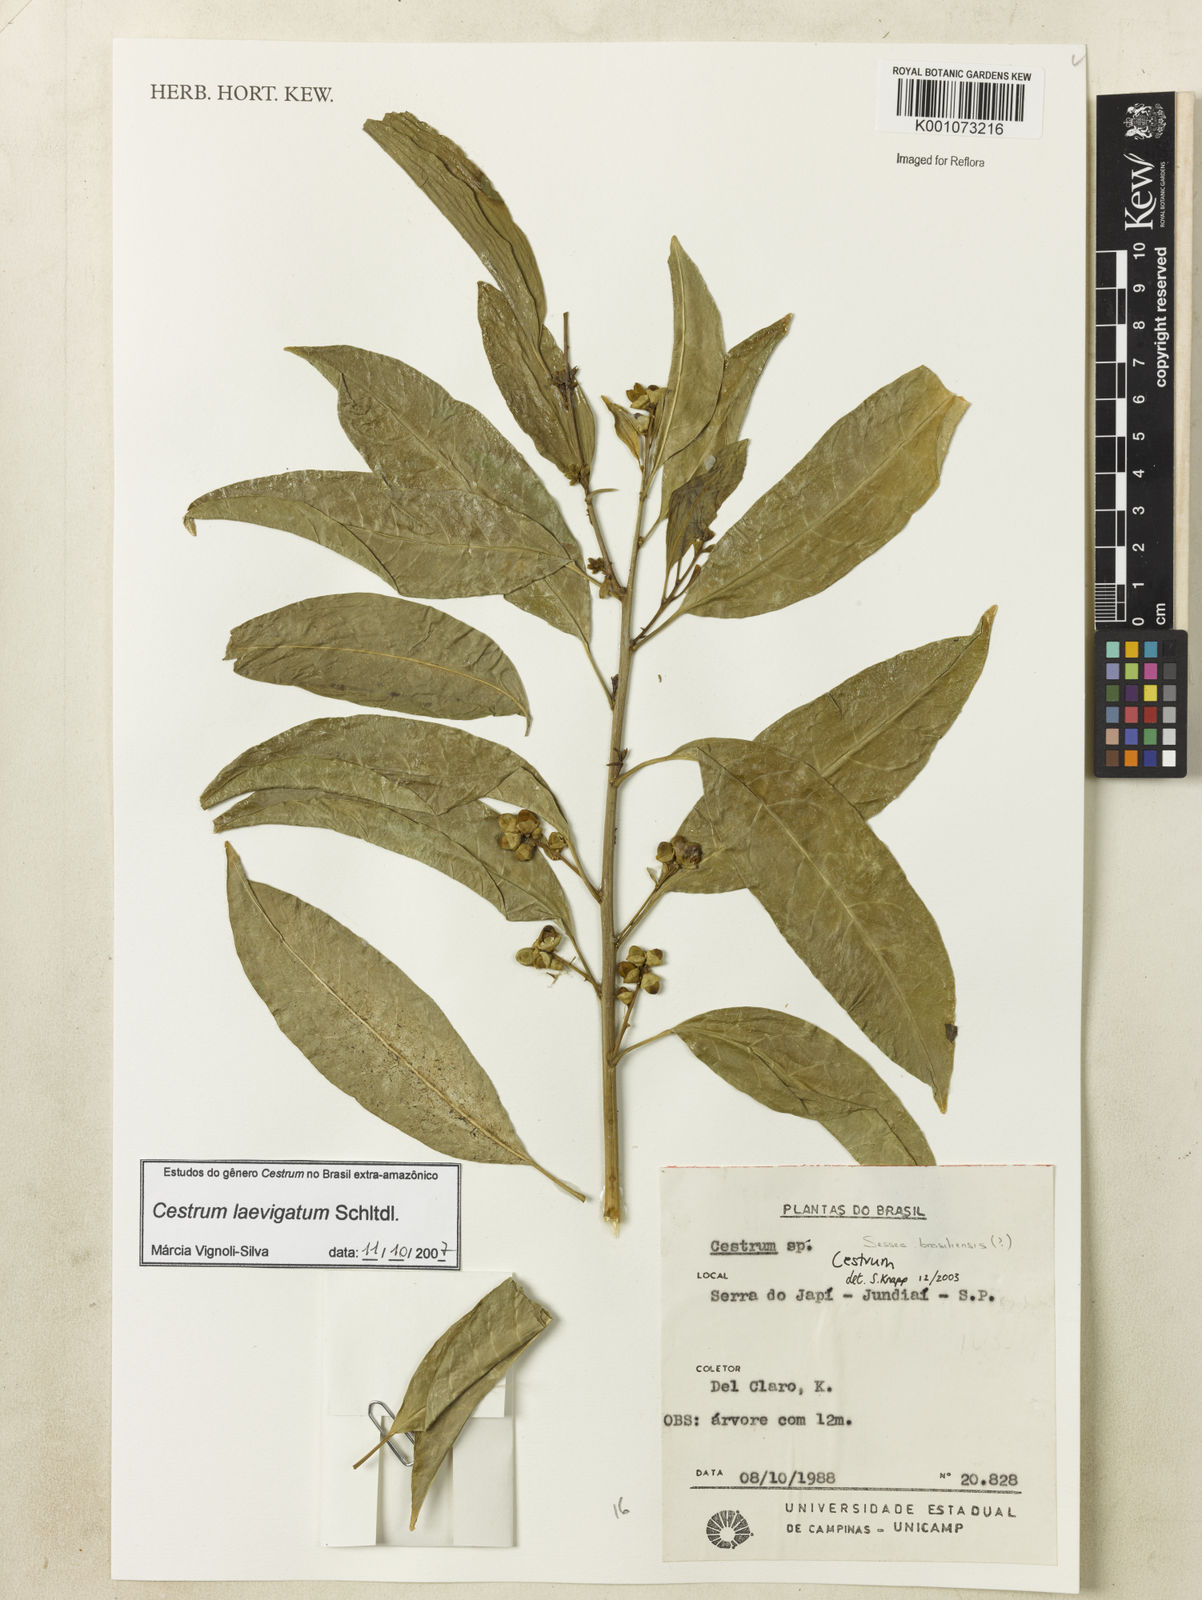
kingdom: Plantae
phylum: Tracheophyta
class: Magnoliopsida
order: Solanales
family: Solanaceae
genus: Cestrum
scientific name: Cestrum laevigatum
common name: Inkberry
